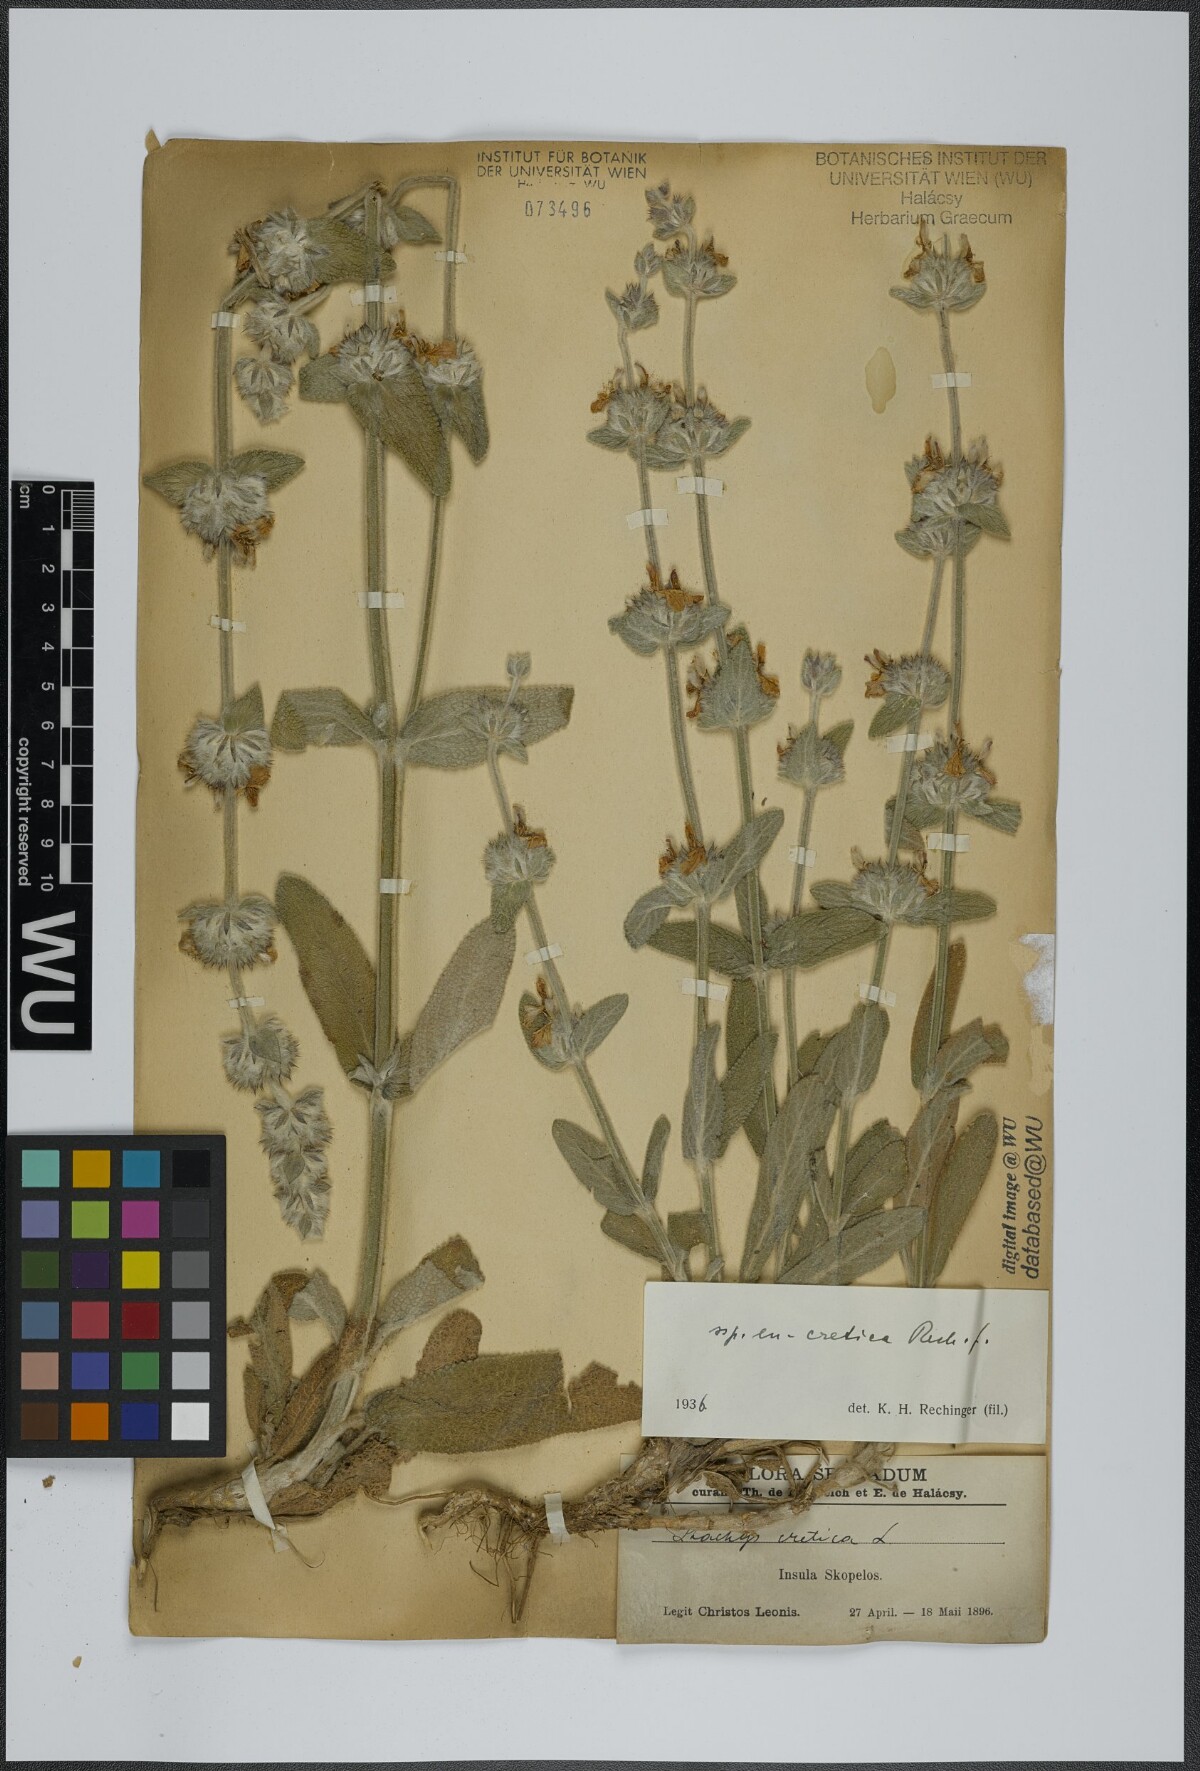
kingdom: Plantae
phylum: Tracheophyta
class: Magnoliopsida
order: Lamiales
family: Lamiaceae
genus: Stachys
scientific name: Stachys cretica
